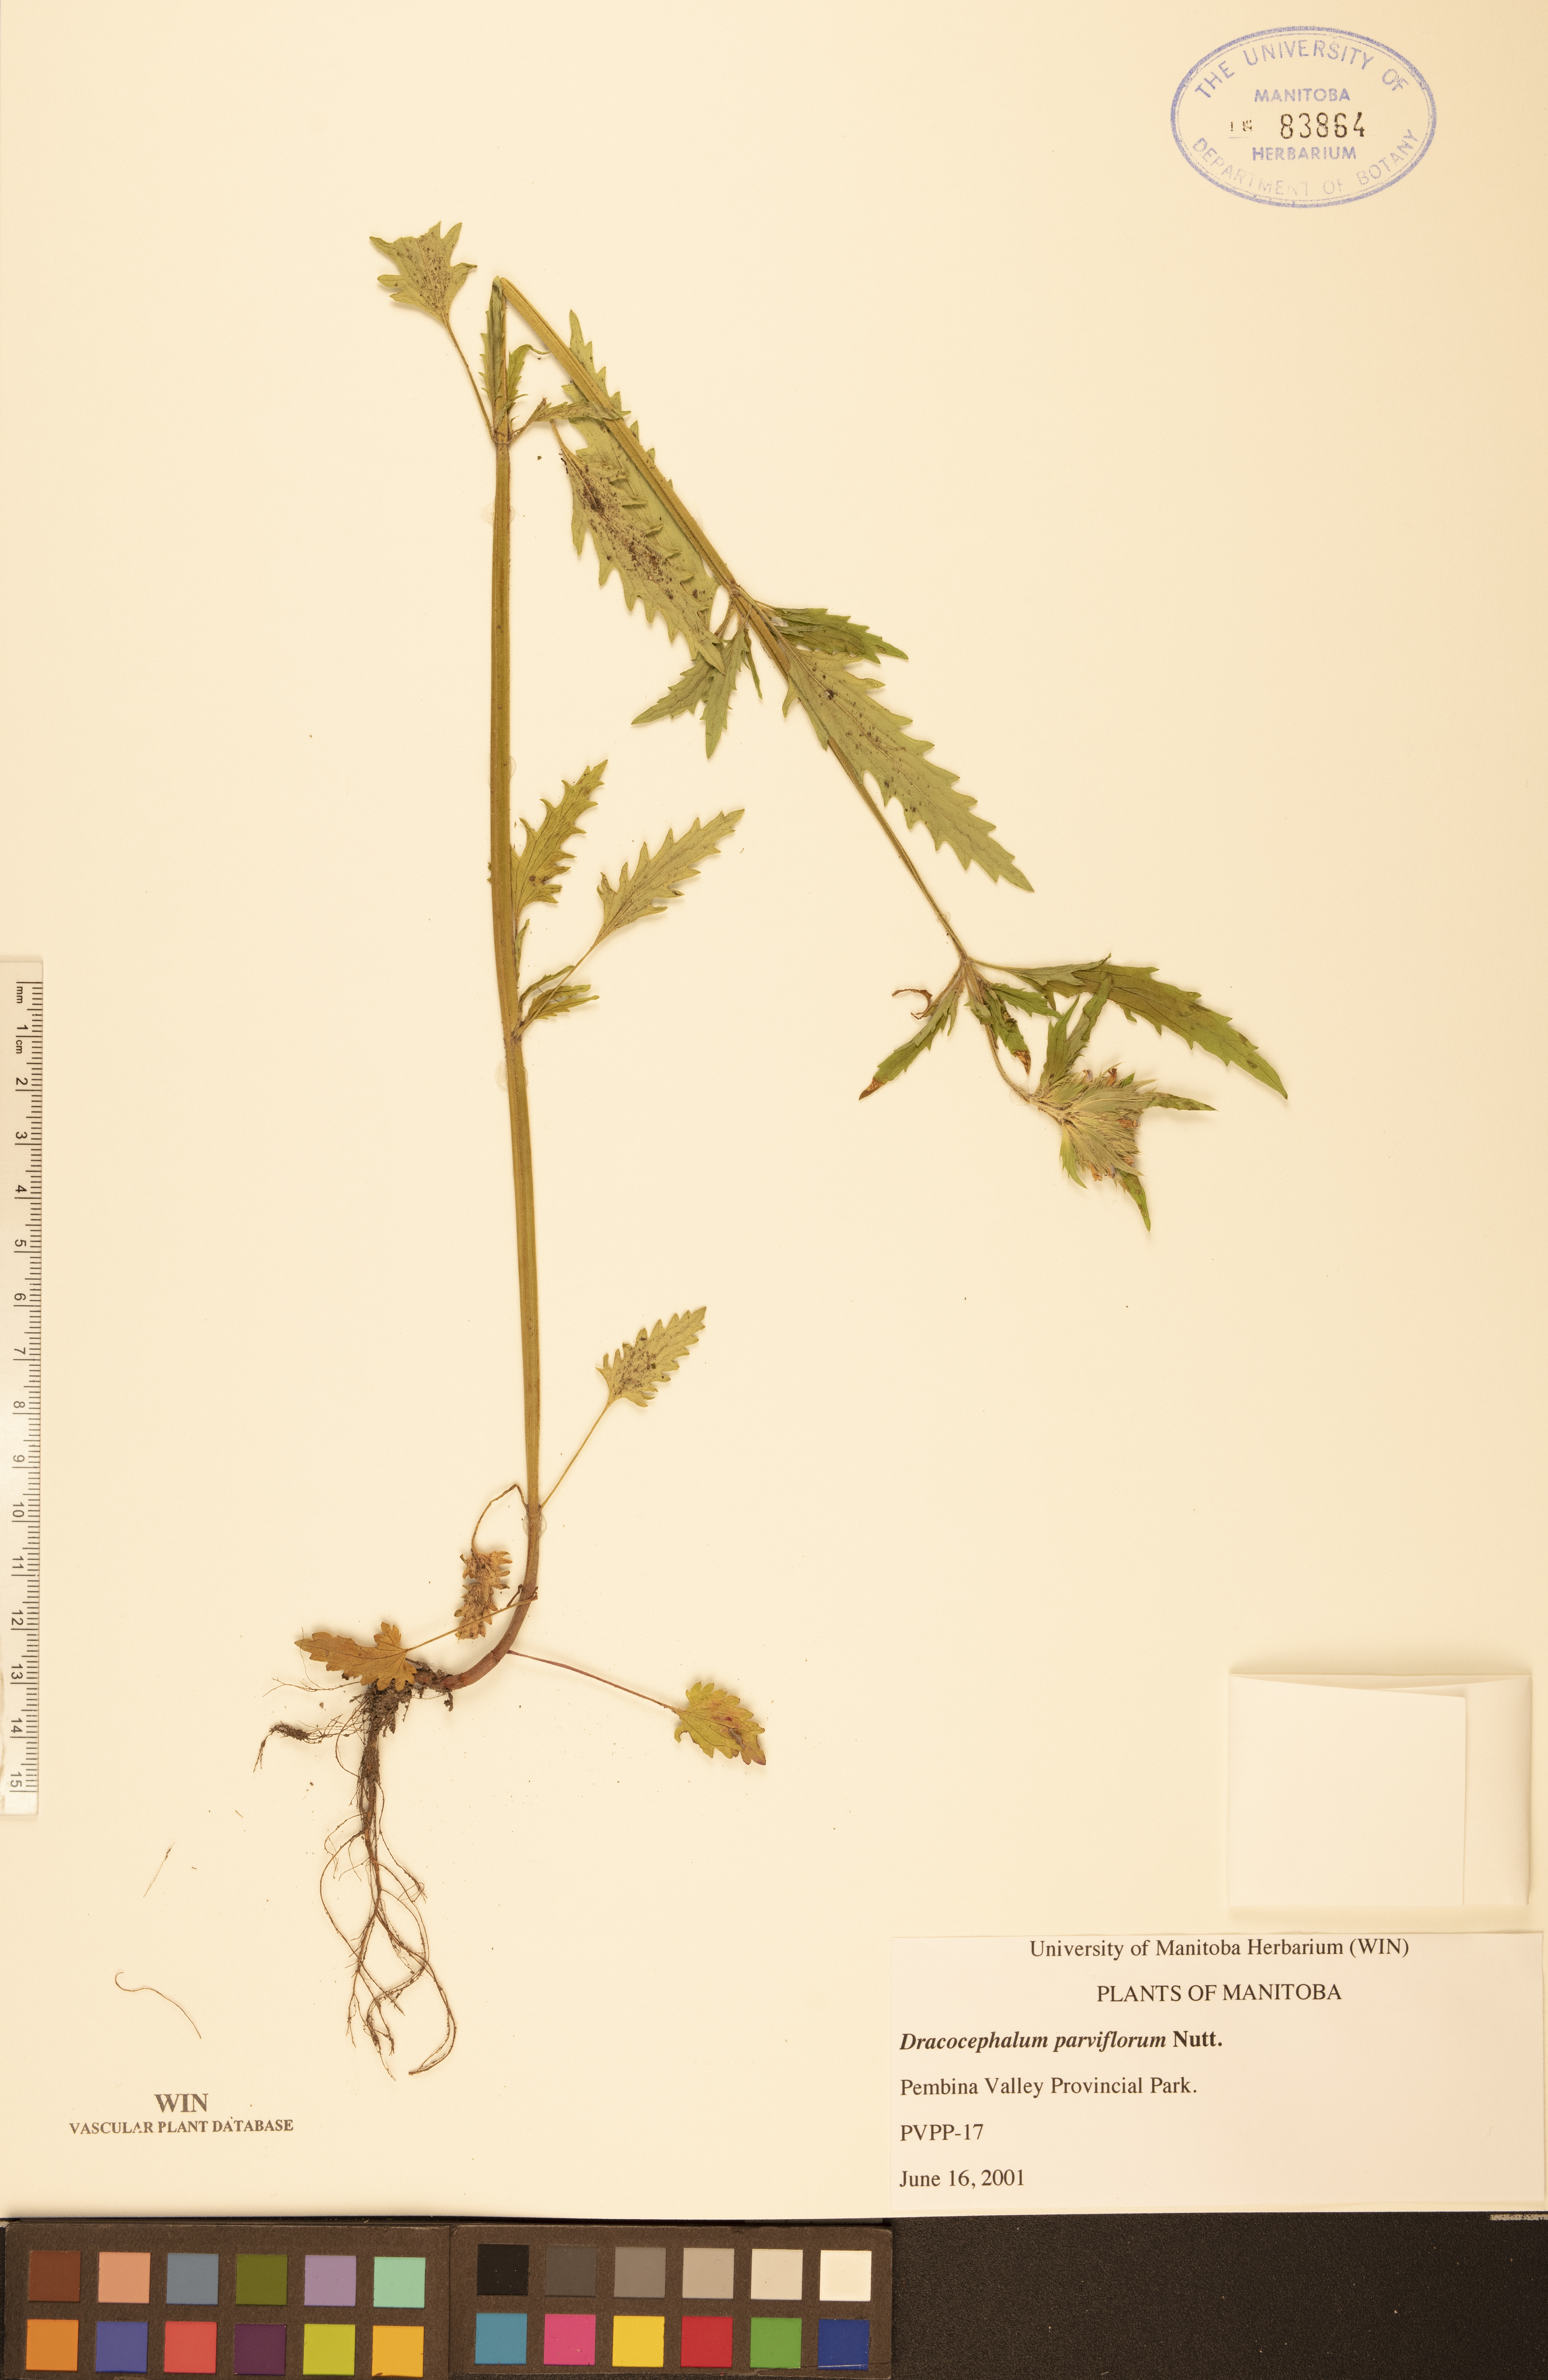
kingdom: Plantae
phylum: Tracheophyta
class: Magnoliopsida
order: Lamiales
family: Lamiaceae
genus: Dracocephalum
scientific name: Dracocephalum parviflorum
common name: American dragonhead
